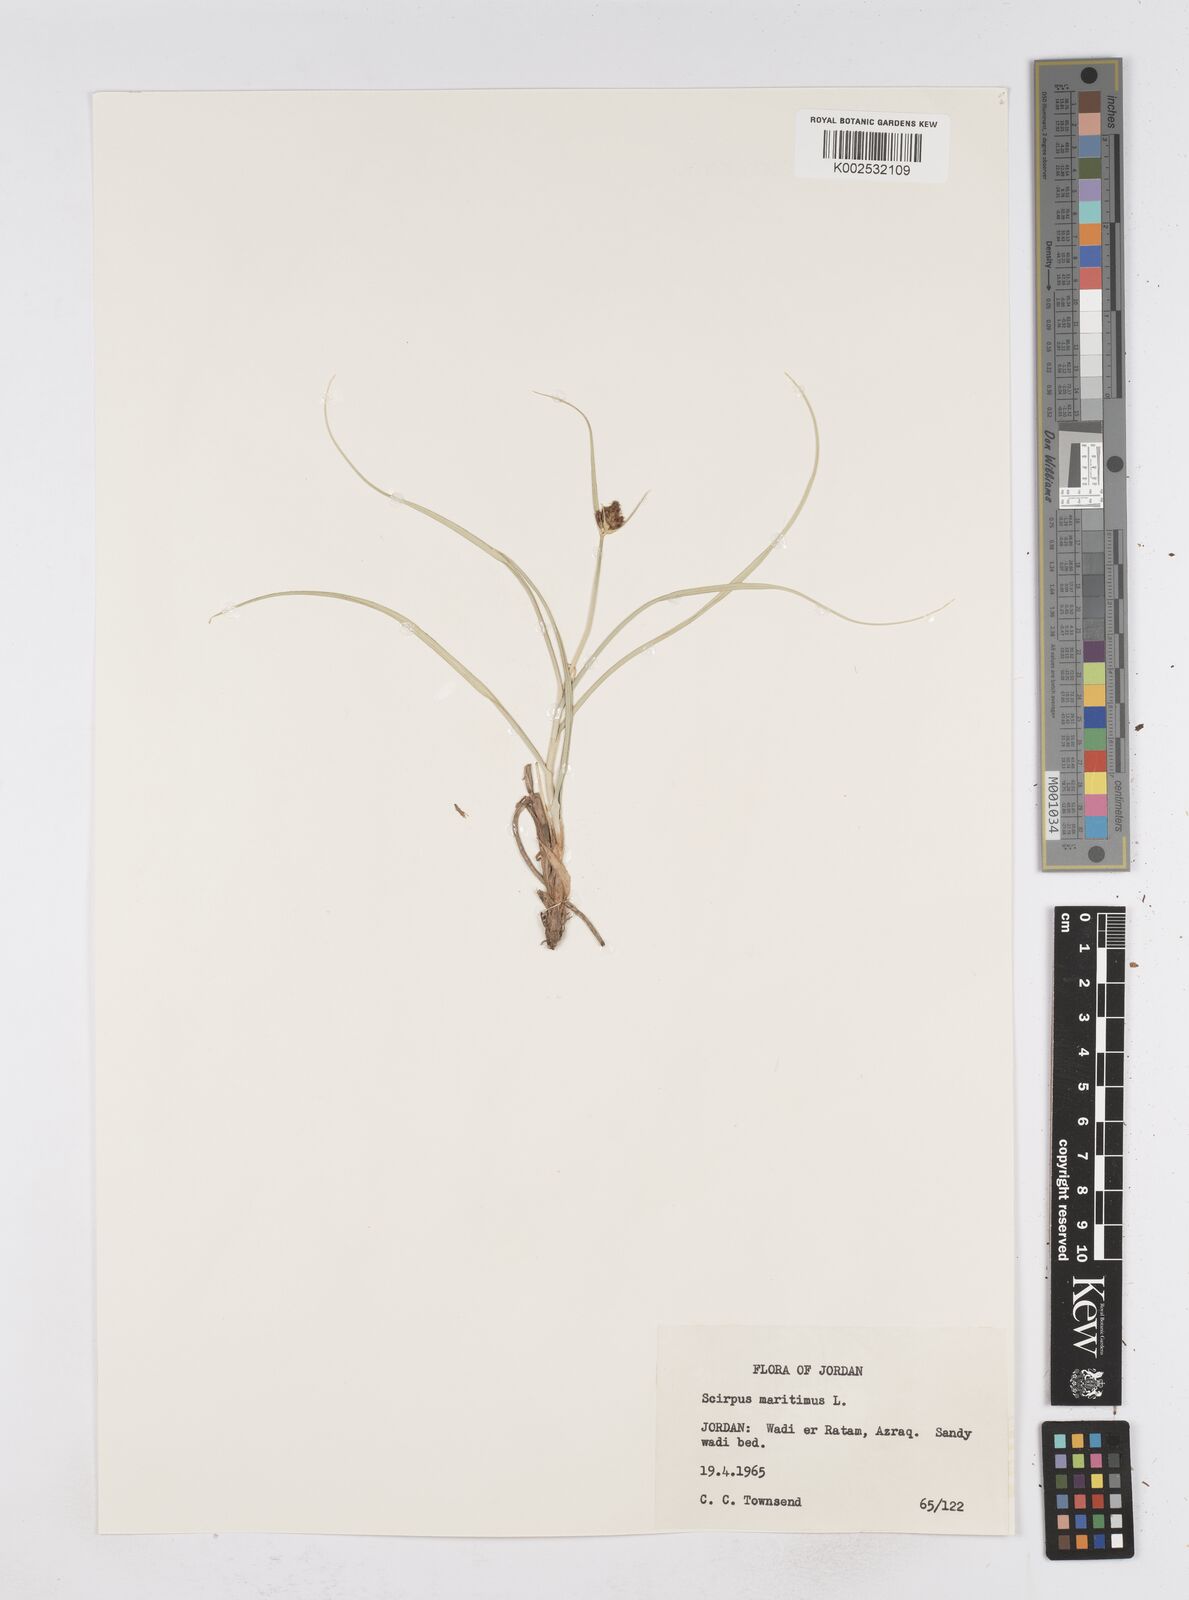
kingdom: Plantae
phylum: Tracheophyta
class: Liliopsida
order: Poales
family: Cyperaceae
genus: Bolboschoenus
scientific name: Bolboschoenus maritimus
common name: Sea club-rush
